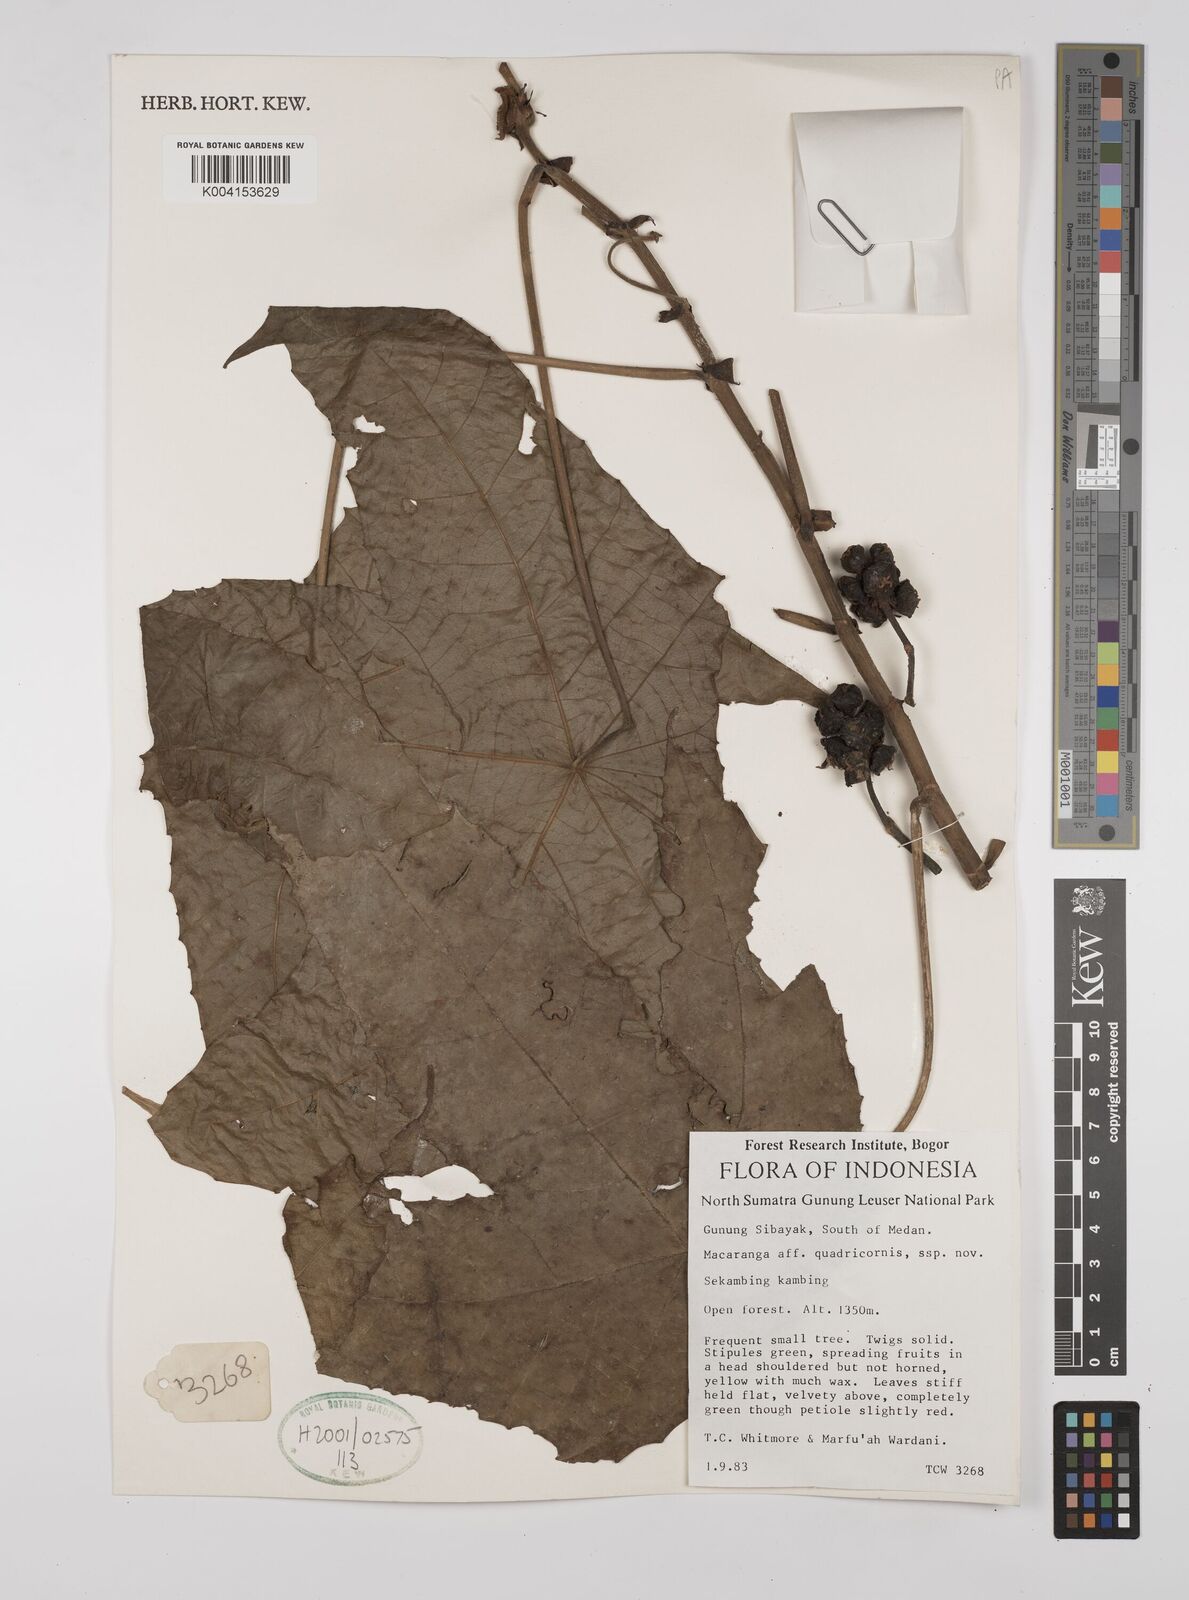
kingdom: Plantae
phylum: Tracheophyta
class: Magnoliopsida
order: Malpighiales
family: Euphorbiaceae
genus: Macaranga
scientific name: Macaranga triloba
